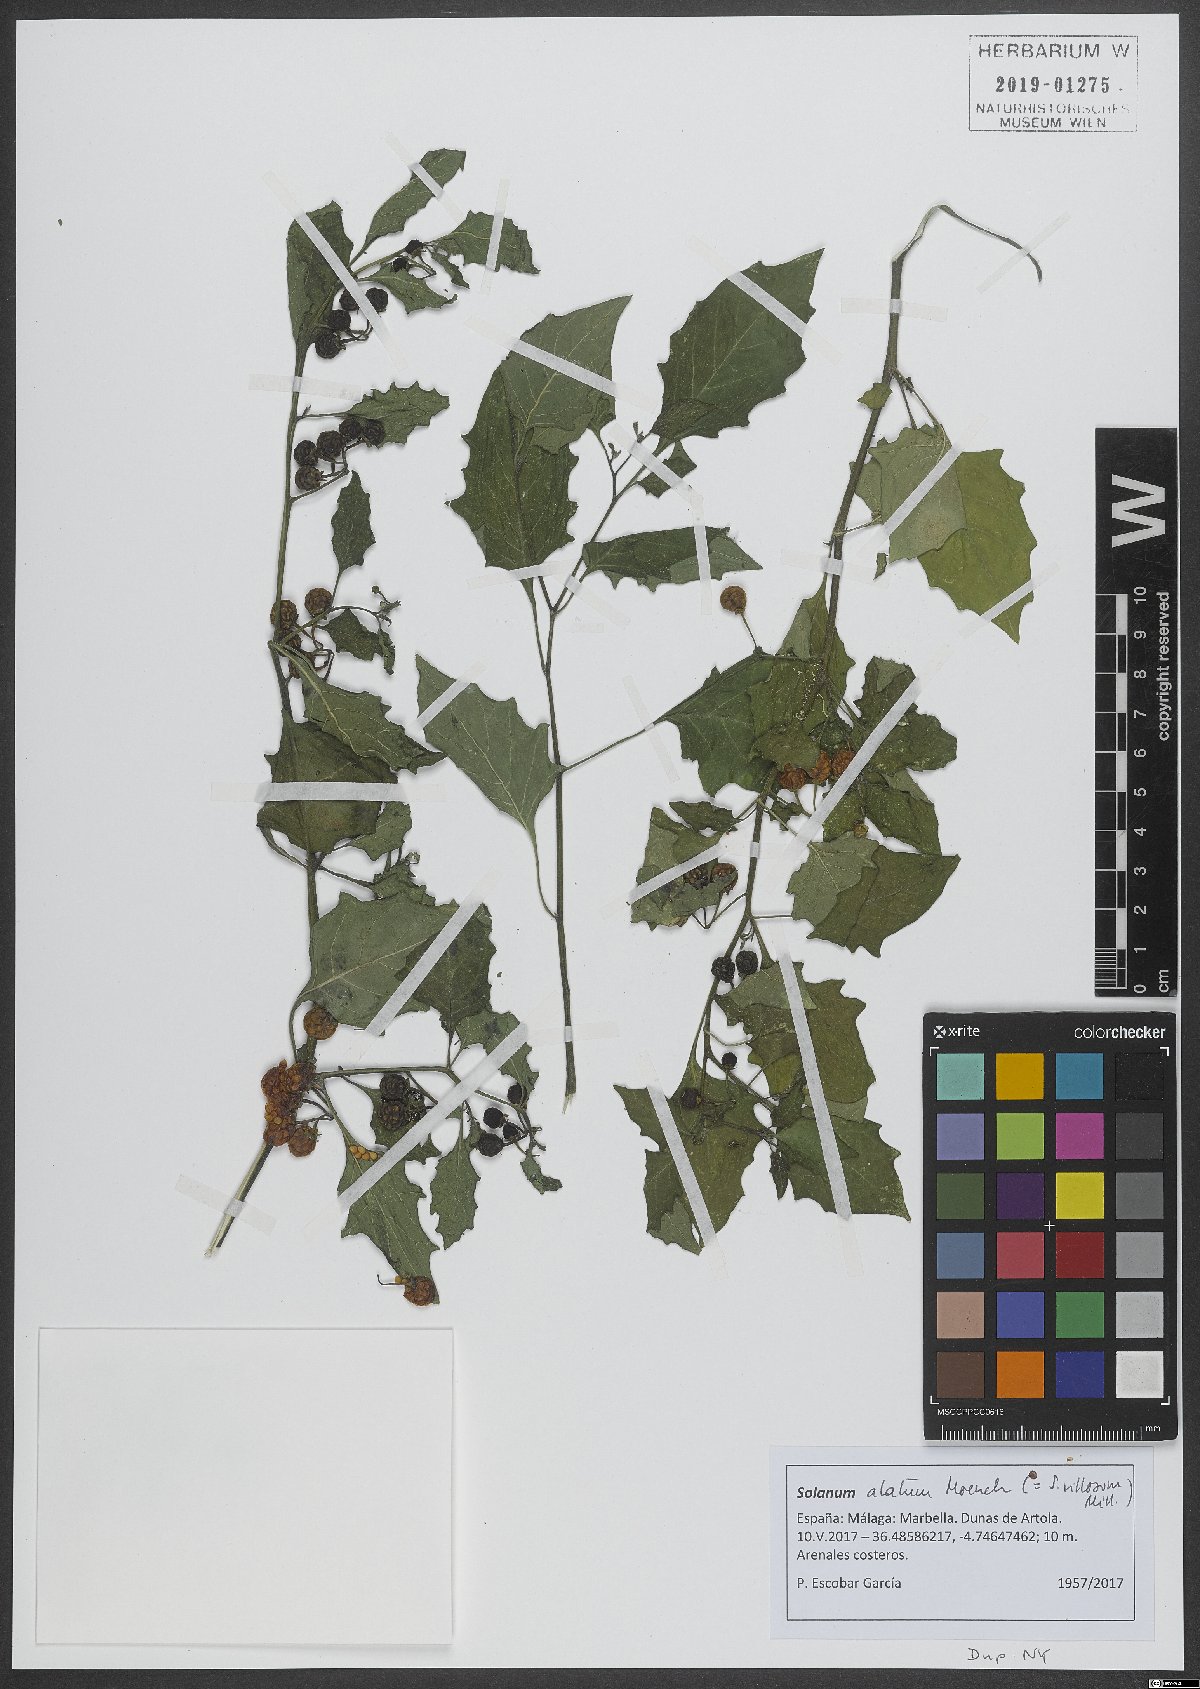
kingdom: Plantae
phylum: Tracheophyta
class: Magnoliopsida
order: Solanales
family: Solanaceae
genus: Solanum
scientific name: Solanum alatum
